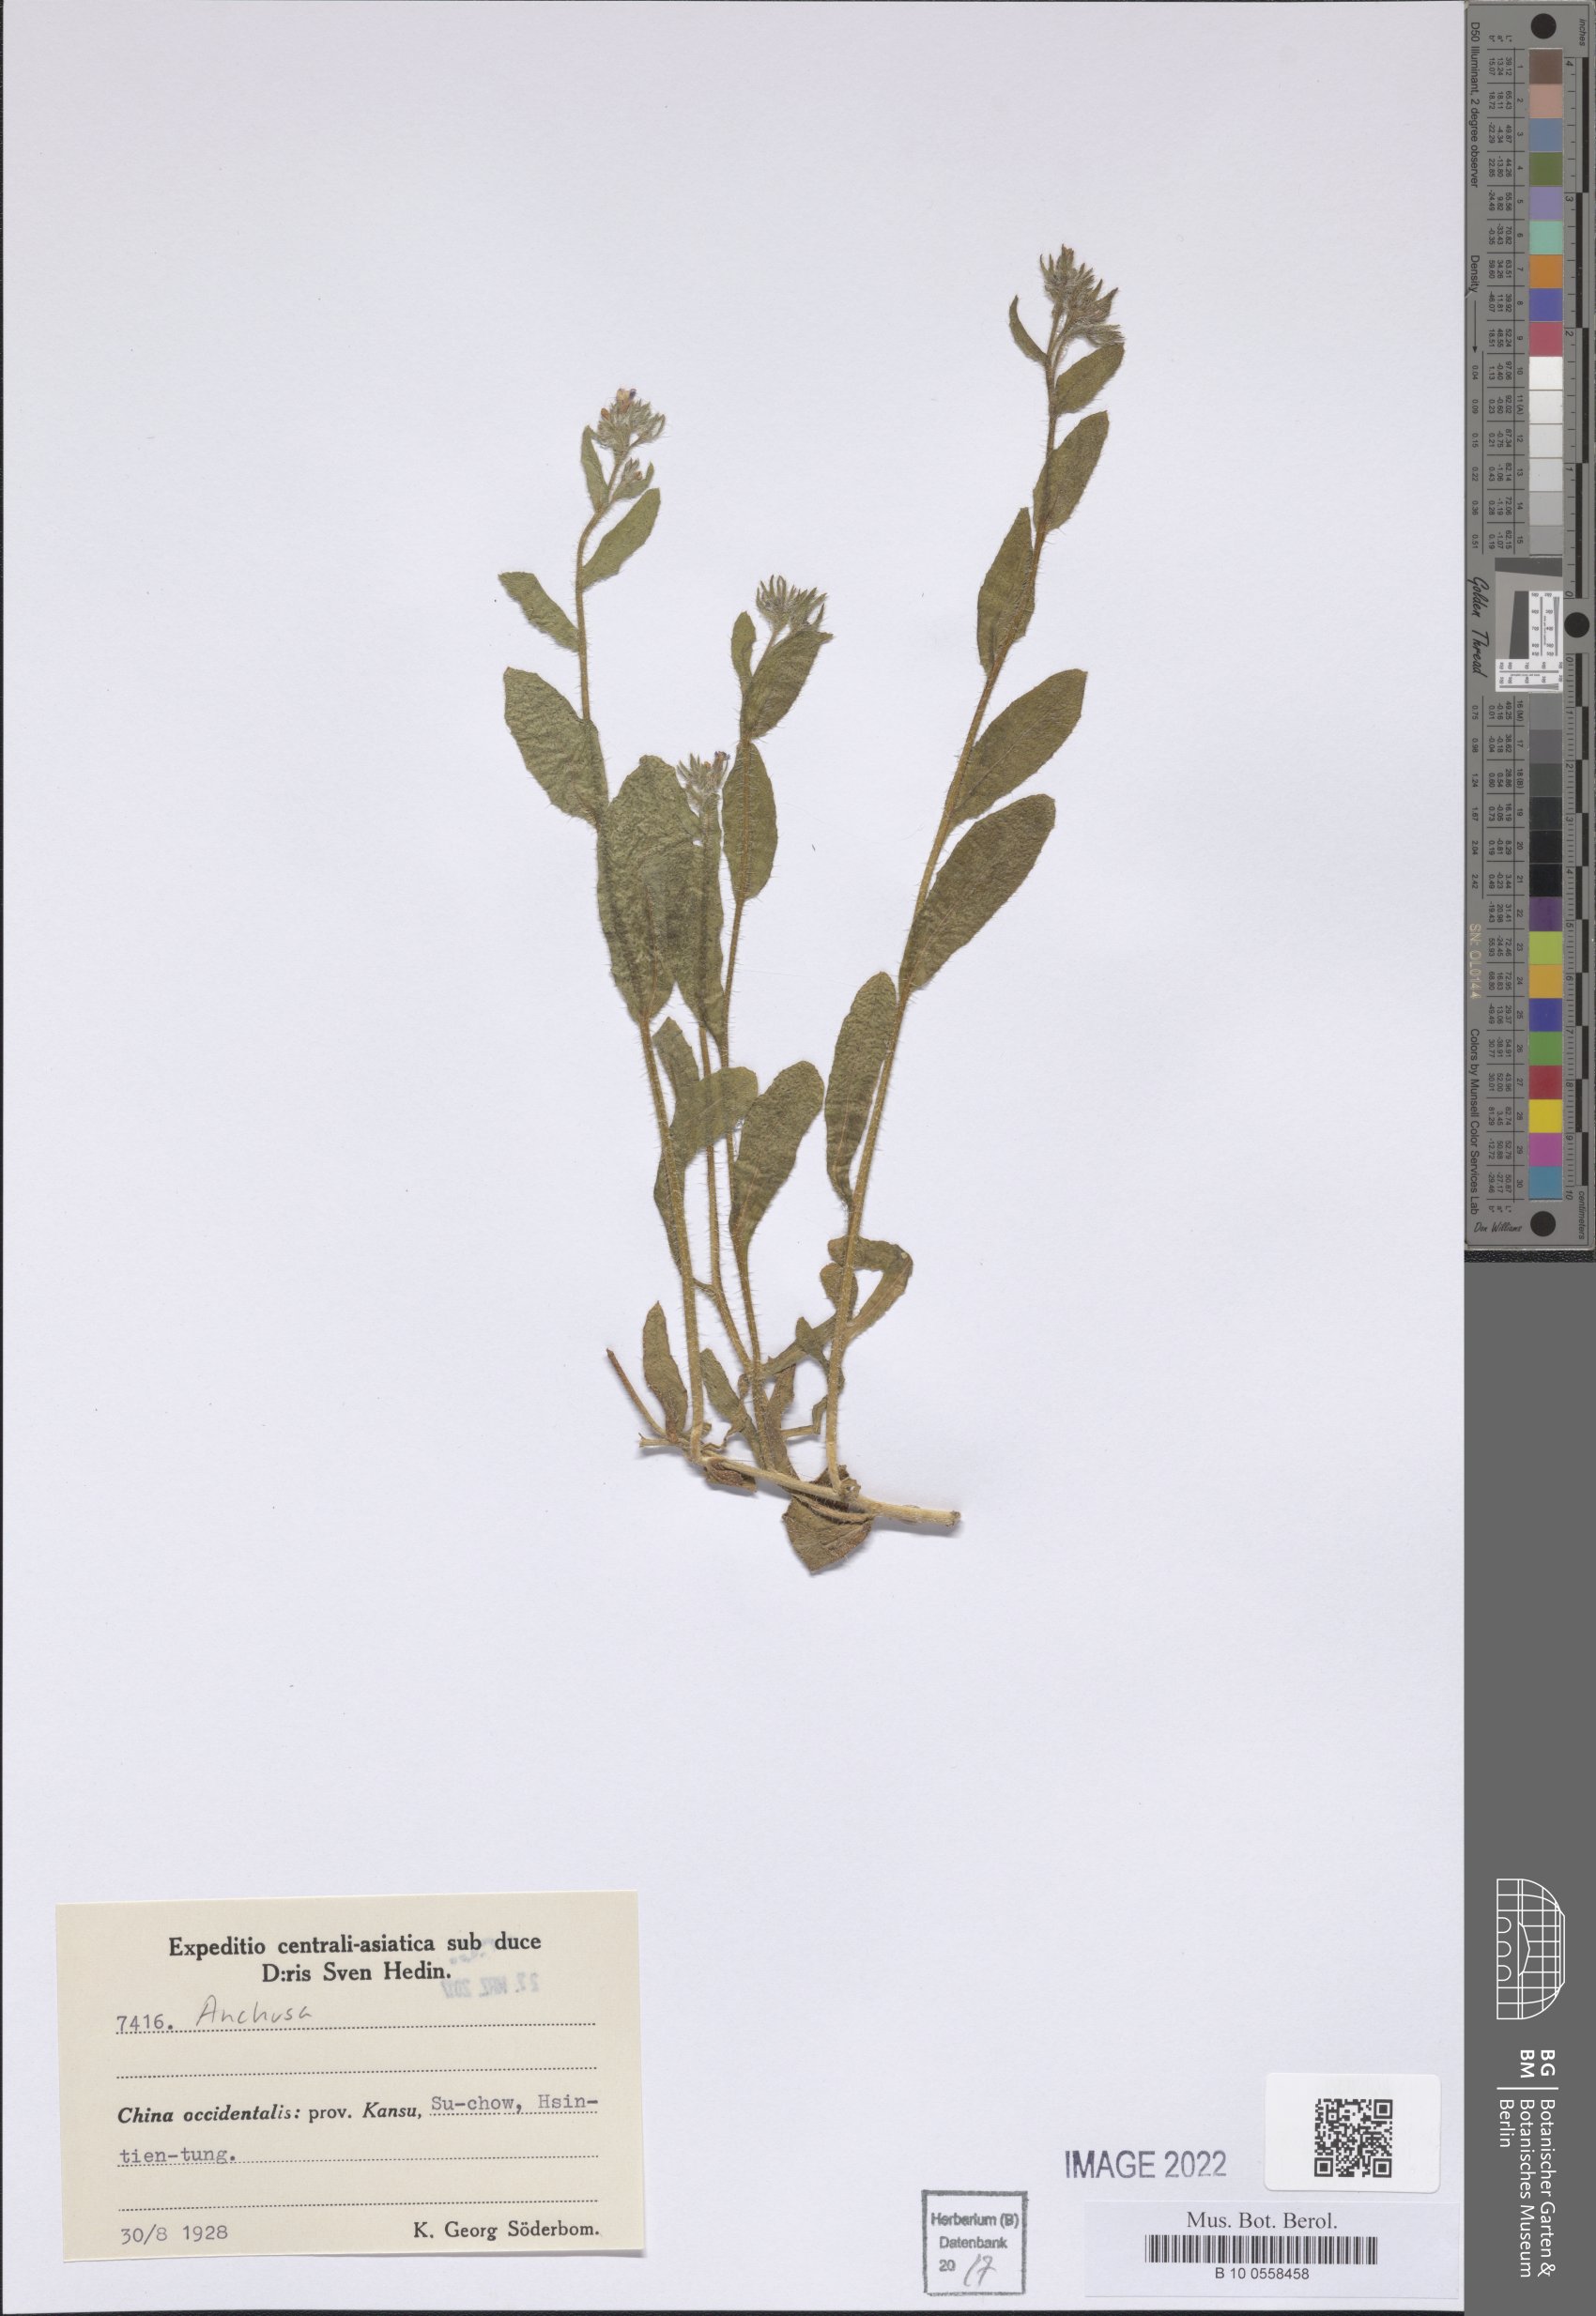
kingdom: Plantae
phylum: Tracheophyta
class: Magnoliopsida
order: Boraginales
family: Boraginaceae
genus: Anchusa
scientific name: Anchusa
